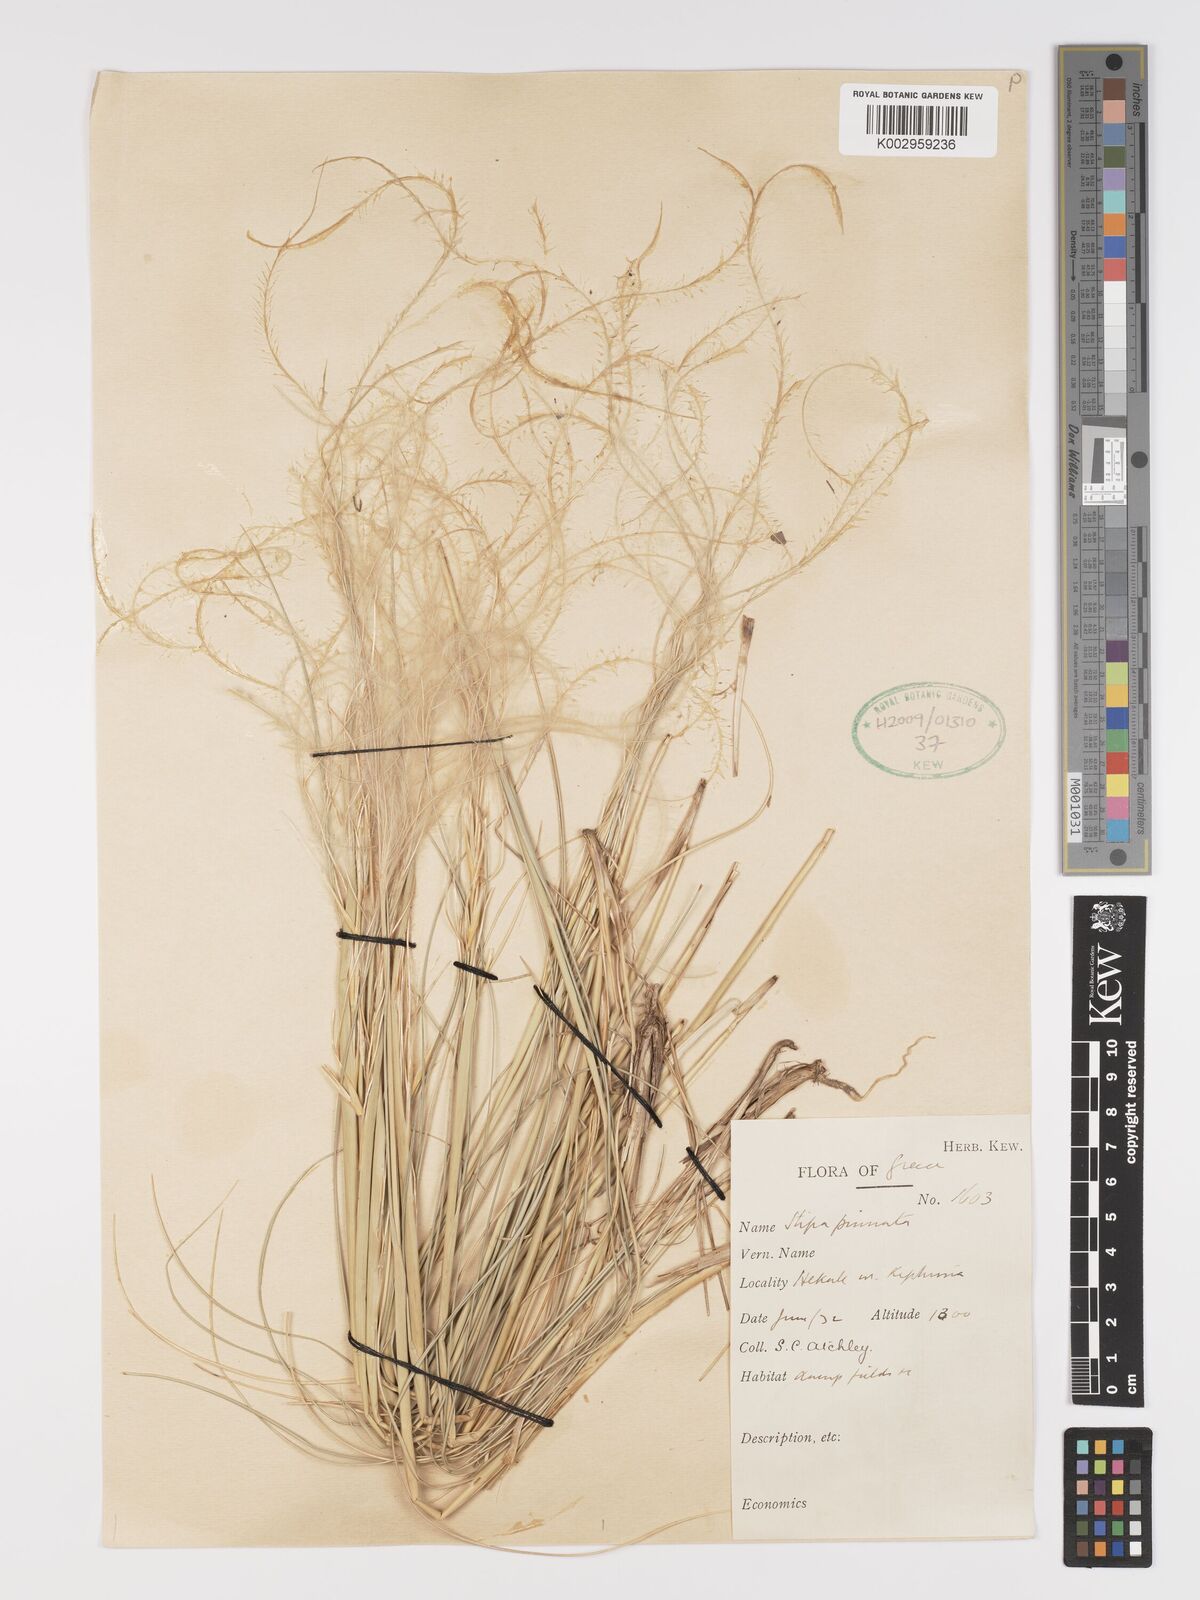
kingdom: Plantae
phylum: Tracheophyta
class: Liliopsida
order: Poales
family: Poaceae
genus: Stipa
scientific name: Stipa pennata
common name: European feather grass
